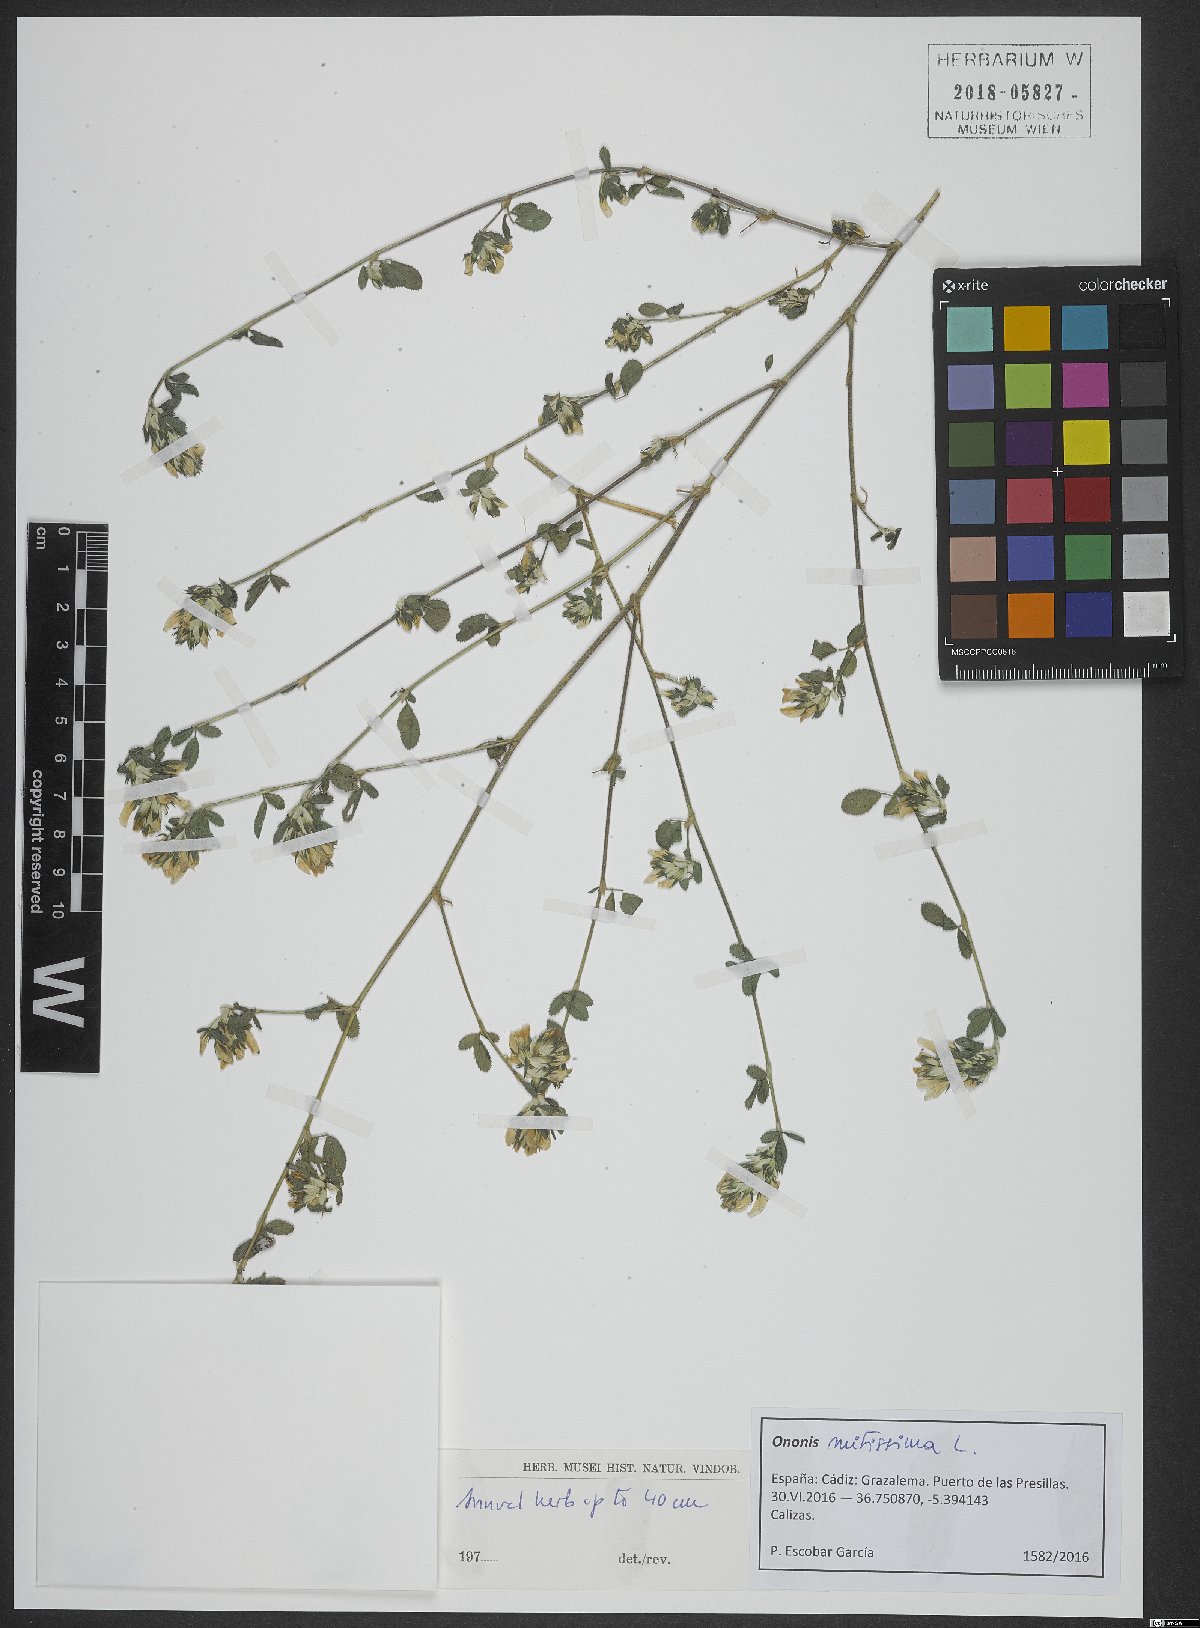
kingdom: Plantae
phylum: Tracheophyta
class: Magnoliopsida
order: Fabales
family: Fabaceae
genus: Ononis
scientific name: Ononis mitissima
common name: Mediterranean restharrow
